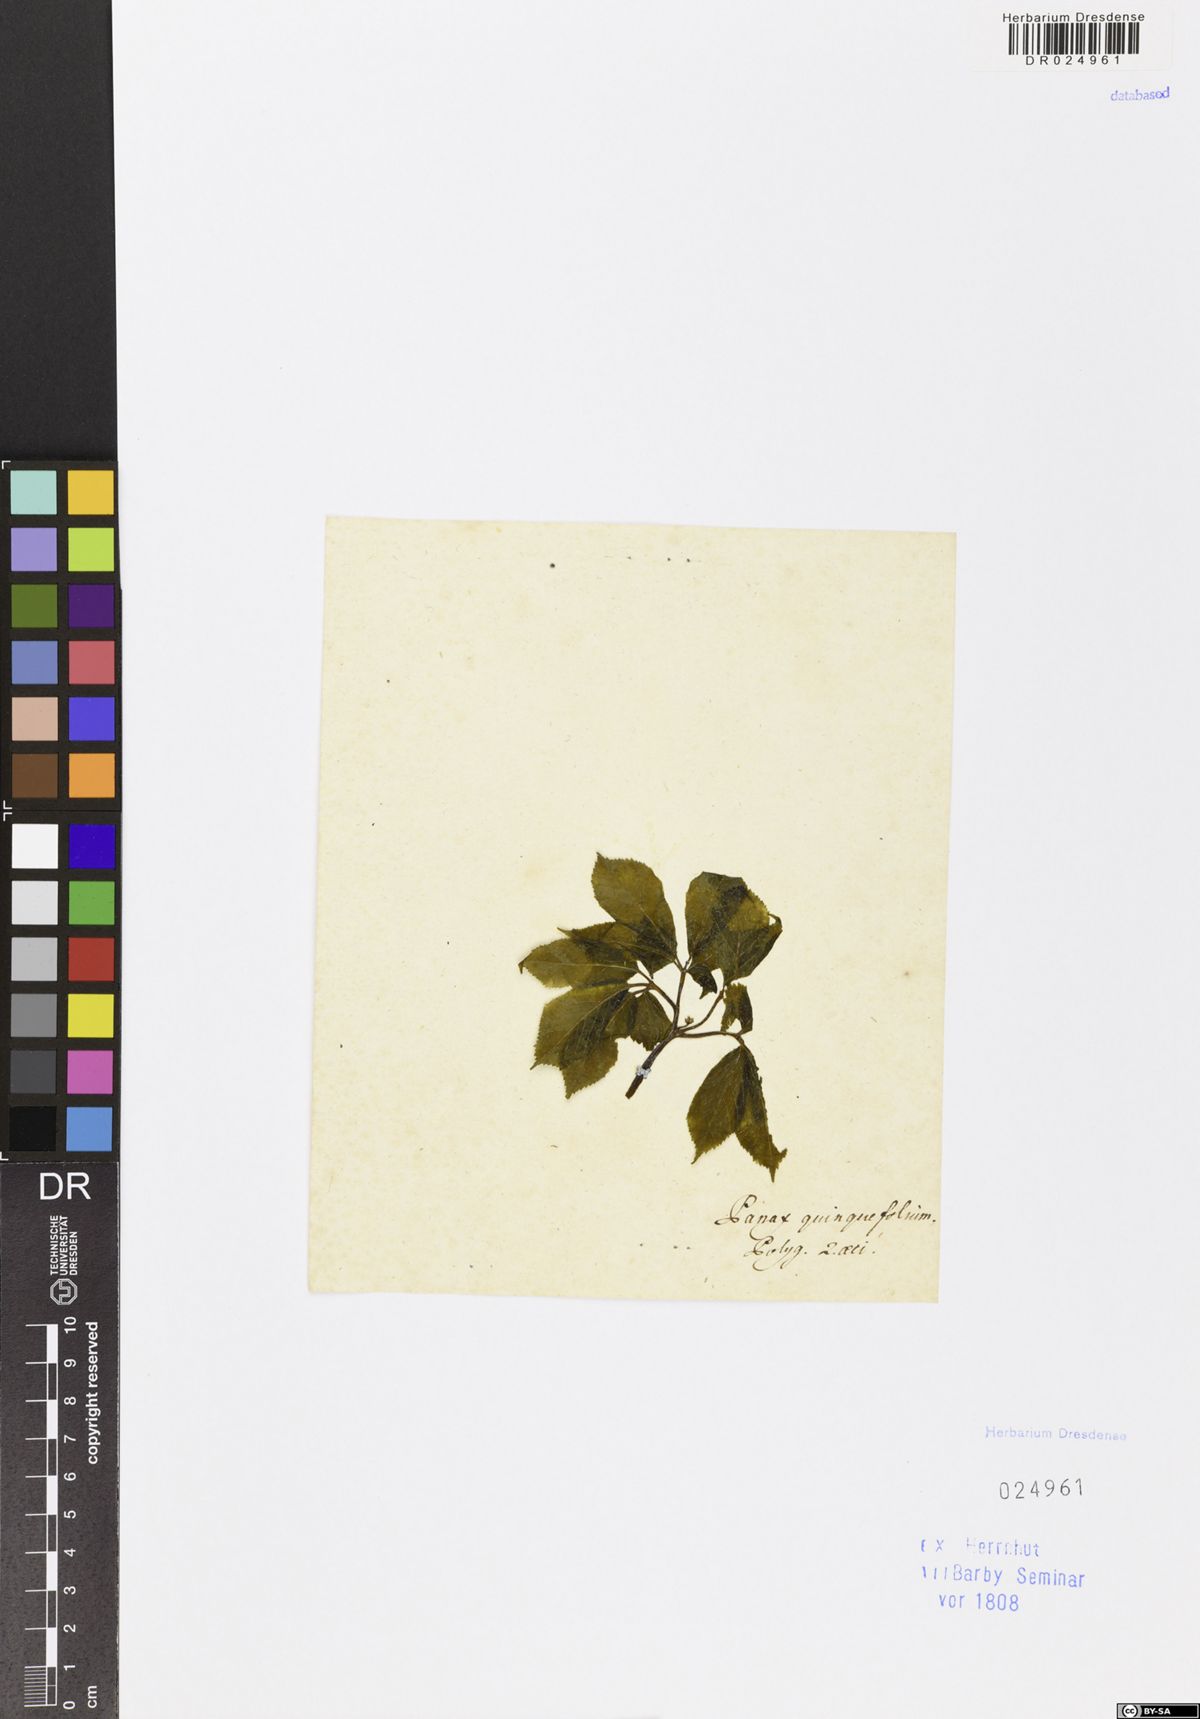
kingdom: Plantae
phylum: Tracheophyta
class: Magnoliopsida
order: Apiales
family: Araliaceae
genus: Panax
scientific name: Panax quinquefolius
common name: American ginseng
